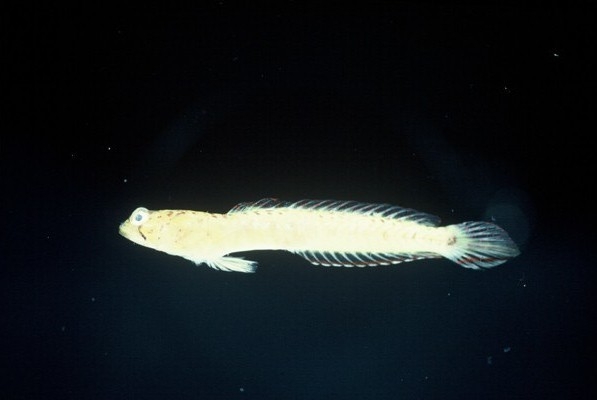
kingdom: Animalia
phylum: Chordata
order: Perciformes
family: Gobiidae
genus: Croilia
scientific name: Croilia mossambica
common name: Burrowing goby
